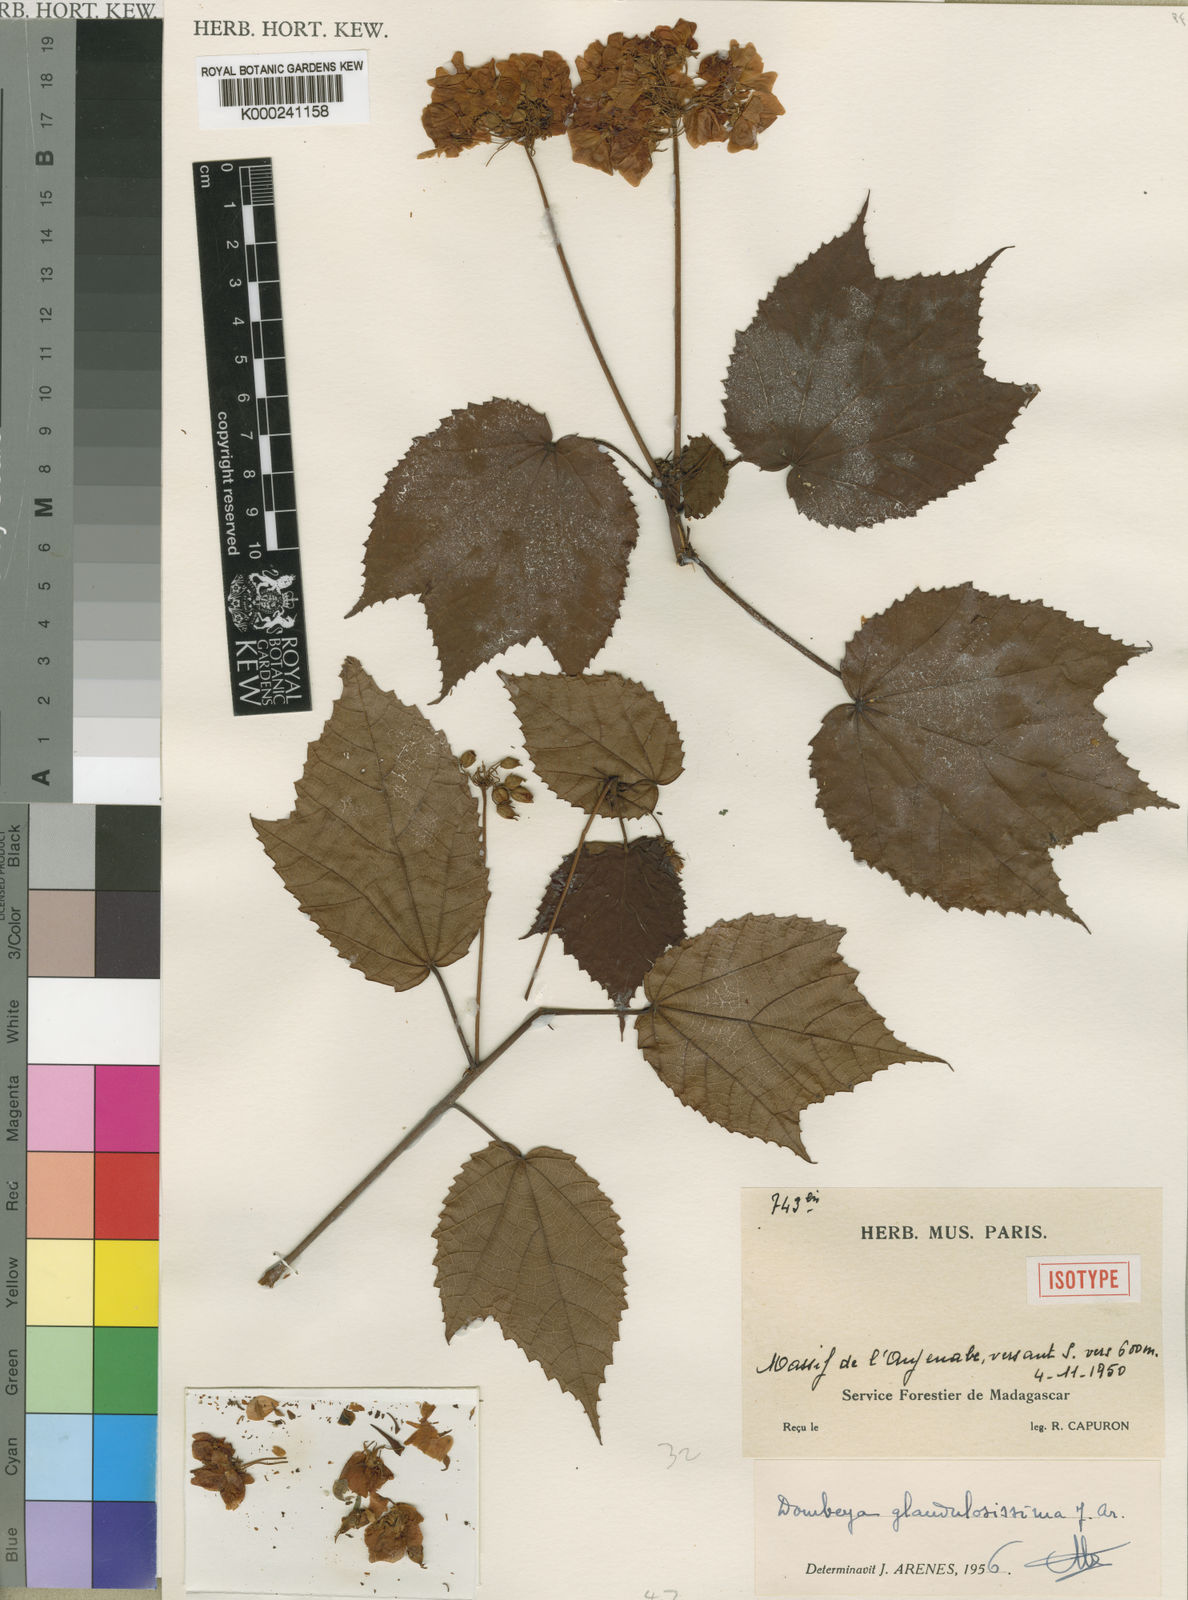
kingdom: Plantae
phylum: Tracheophyta
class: Magnoliopsida
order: Malvales
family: Malvaceae
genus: Dombeya
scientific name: Dombeya glandulosissima
